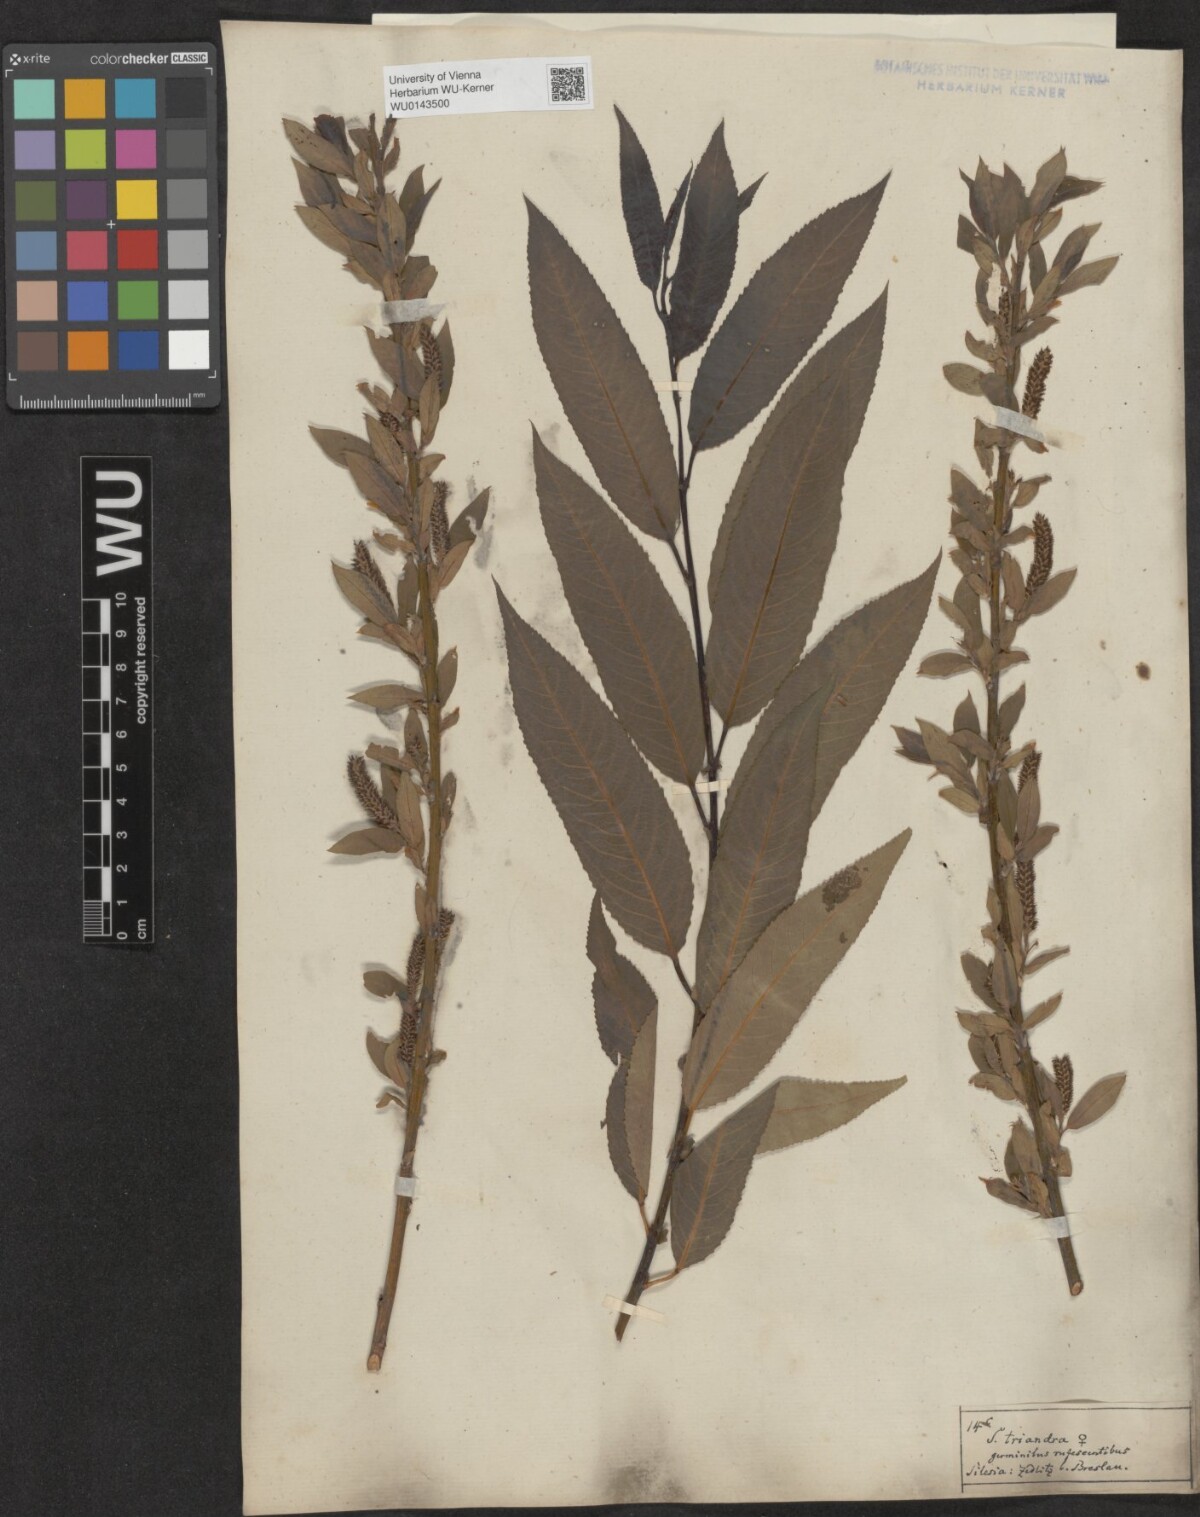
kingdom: Plantae
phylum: Tracheophyta
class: Magnoliopsida
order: Malpighiales
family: Salicaceae
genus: Salix
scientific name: Salix triandra
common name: Almond willow
